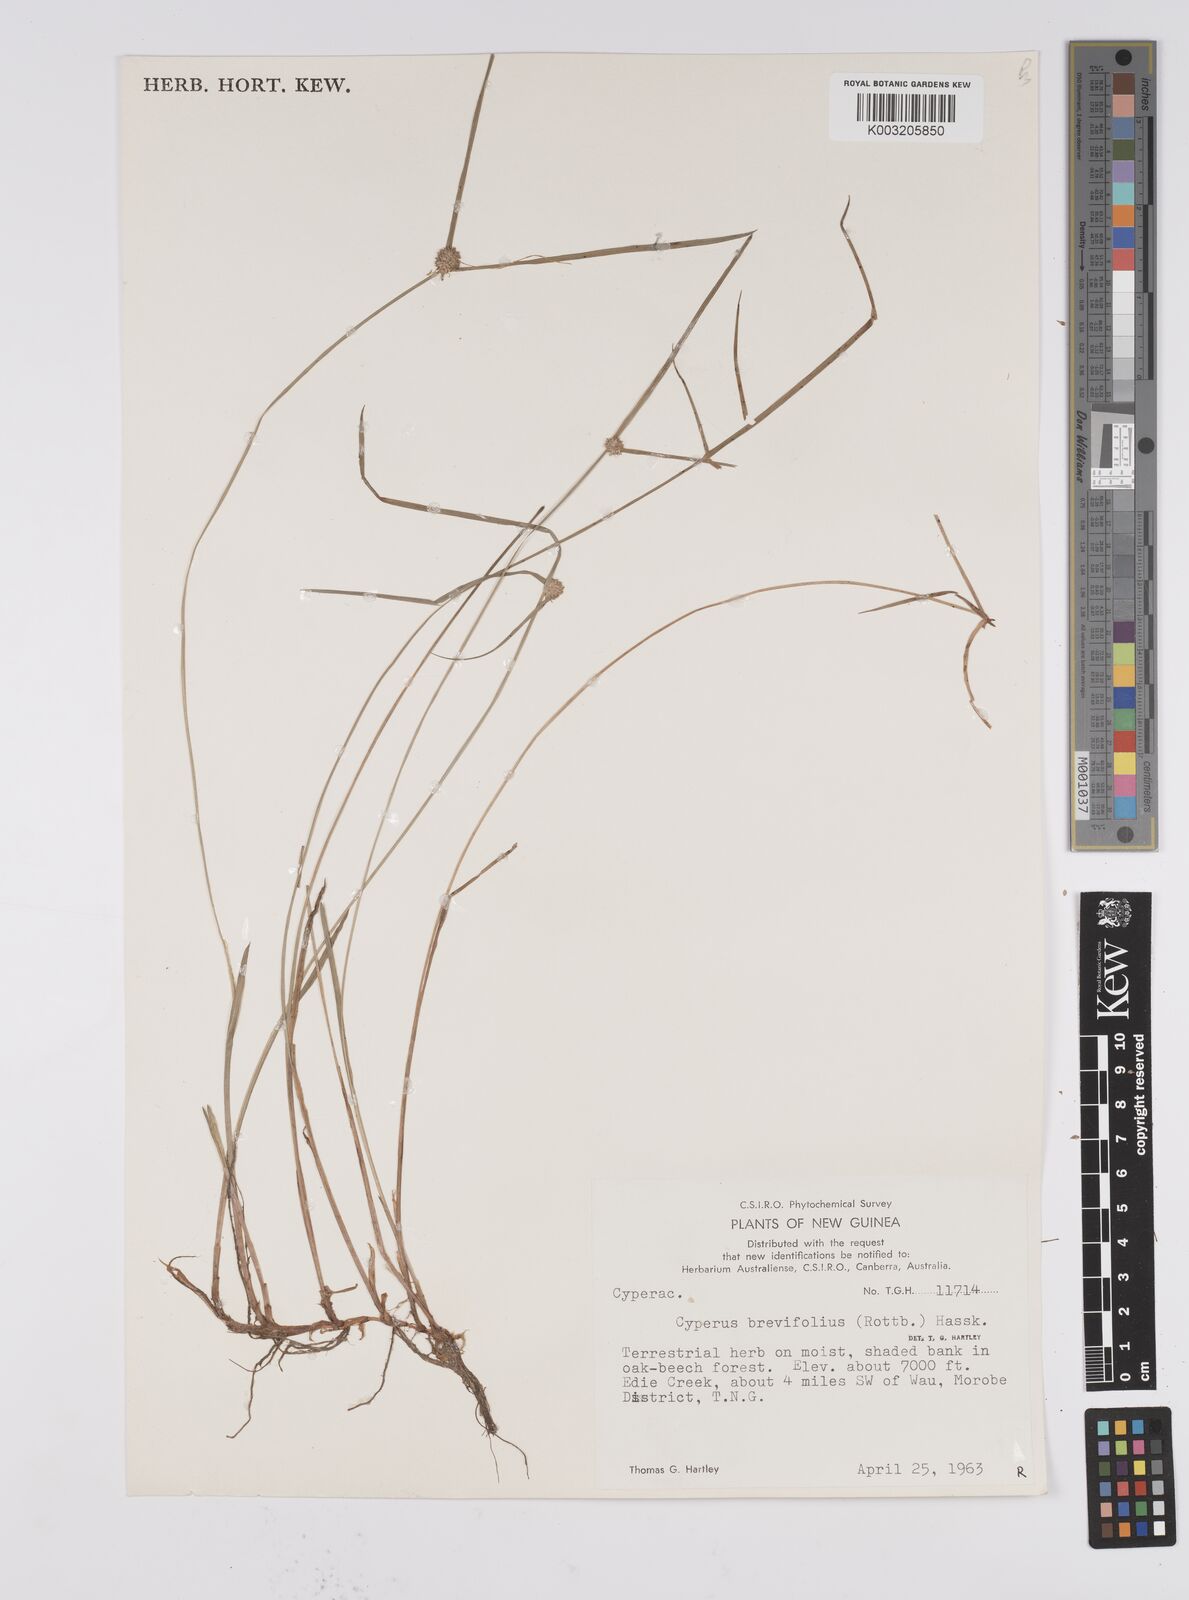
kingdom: Plantae
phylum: Tracheophyta
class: Liliopsida
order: Poales
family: Cyperaceae
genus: Cyperus
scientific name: Cyperus brevifolius
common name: Globe kyllinga
